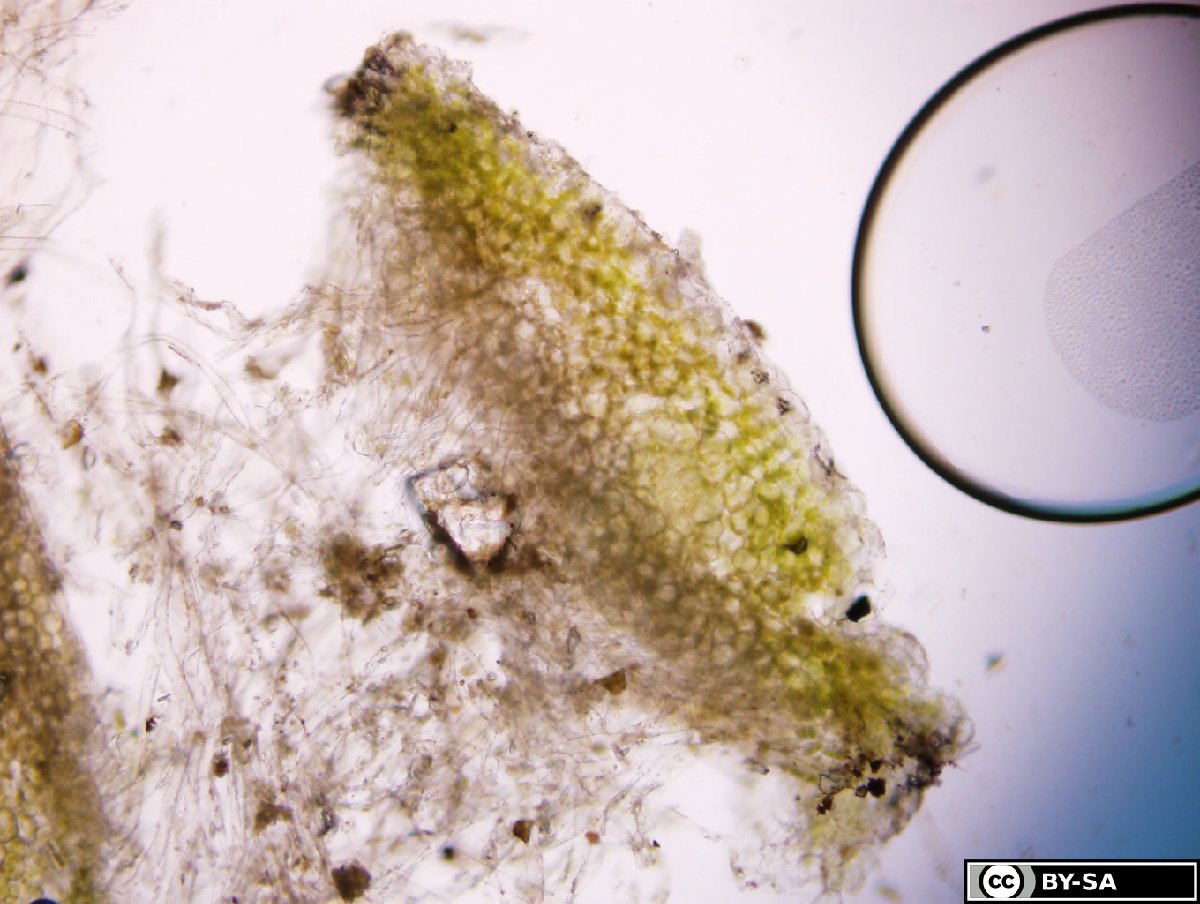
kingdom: Plantae
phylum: Marchantiophyta
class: Marchantiopsida
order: Marchantiales
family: Ricciaceae
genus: Riccia
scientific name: Riccia bifurca
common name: Lizard crystalwort
